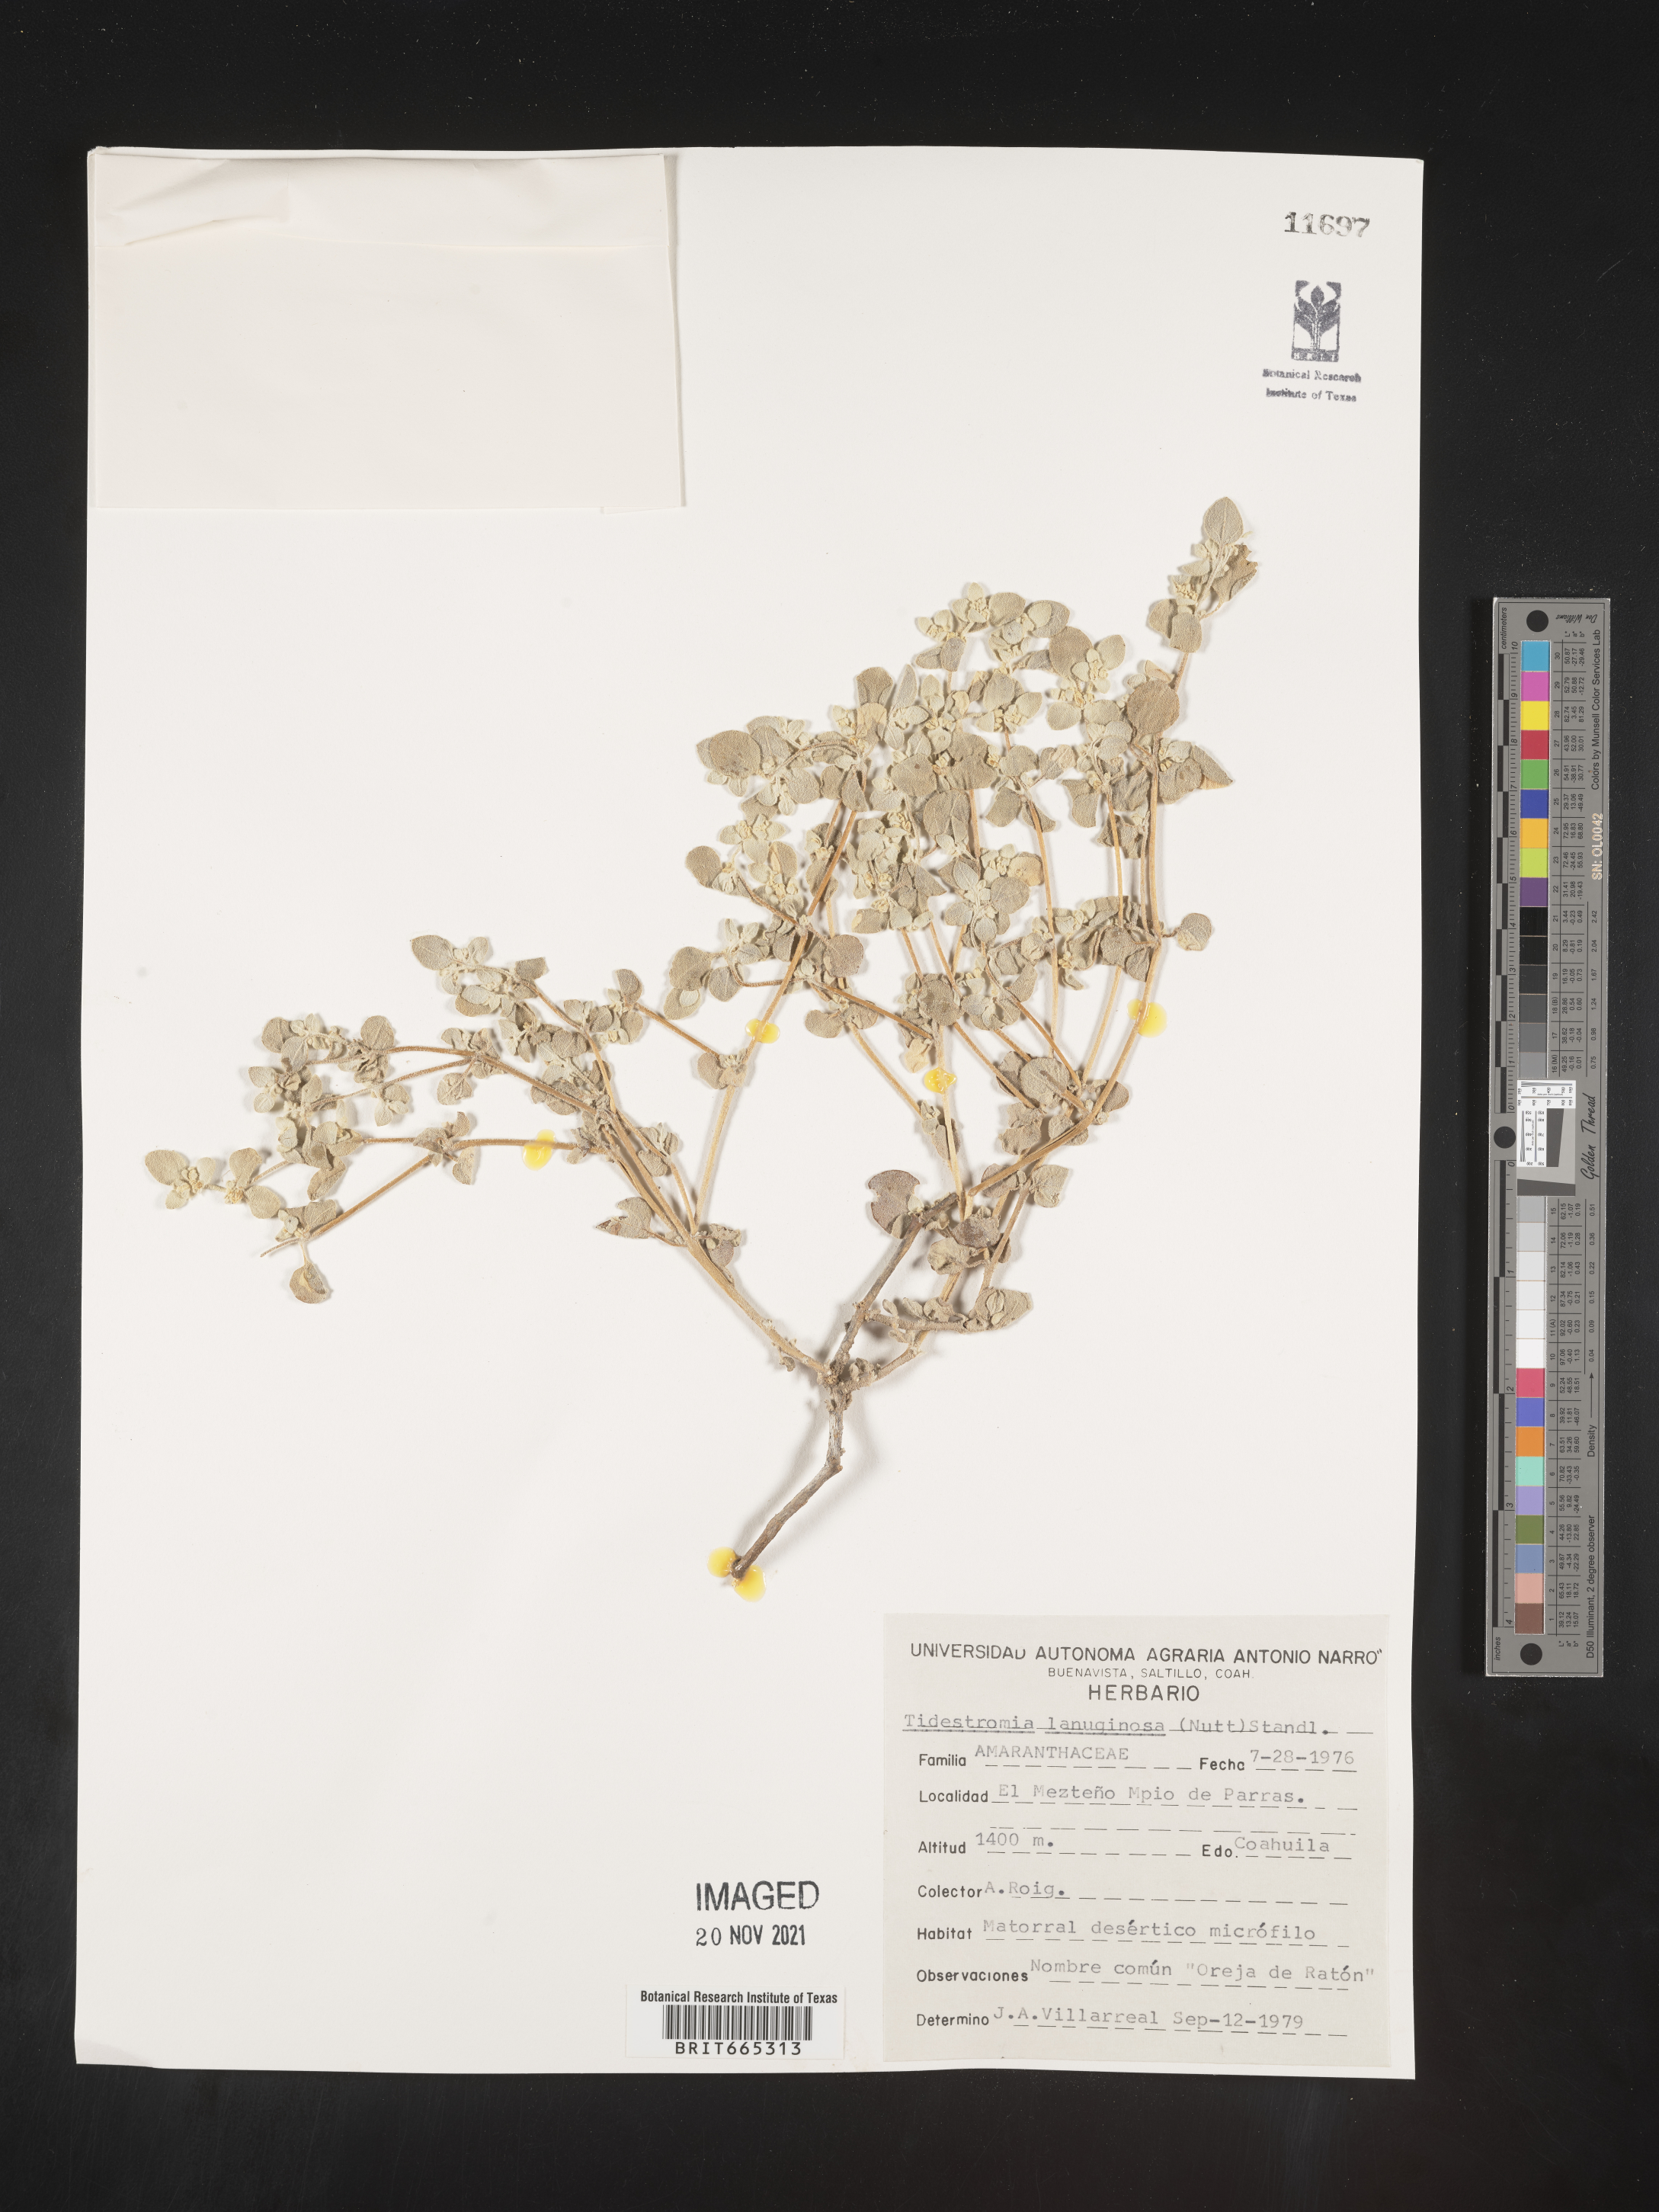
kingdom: Plantae
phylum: Tracheophyta
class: Magnoliopsida
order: Caryophyllales
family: Amaranthaceae
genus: Tidestromia
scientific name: Tidestromia
